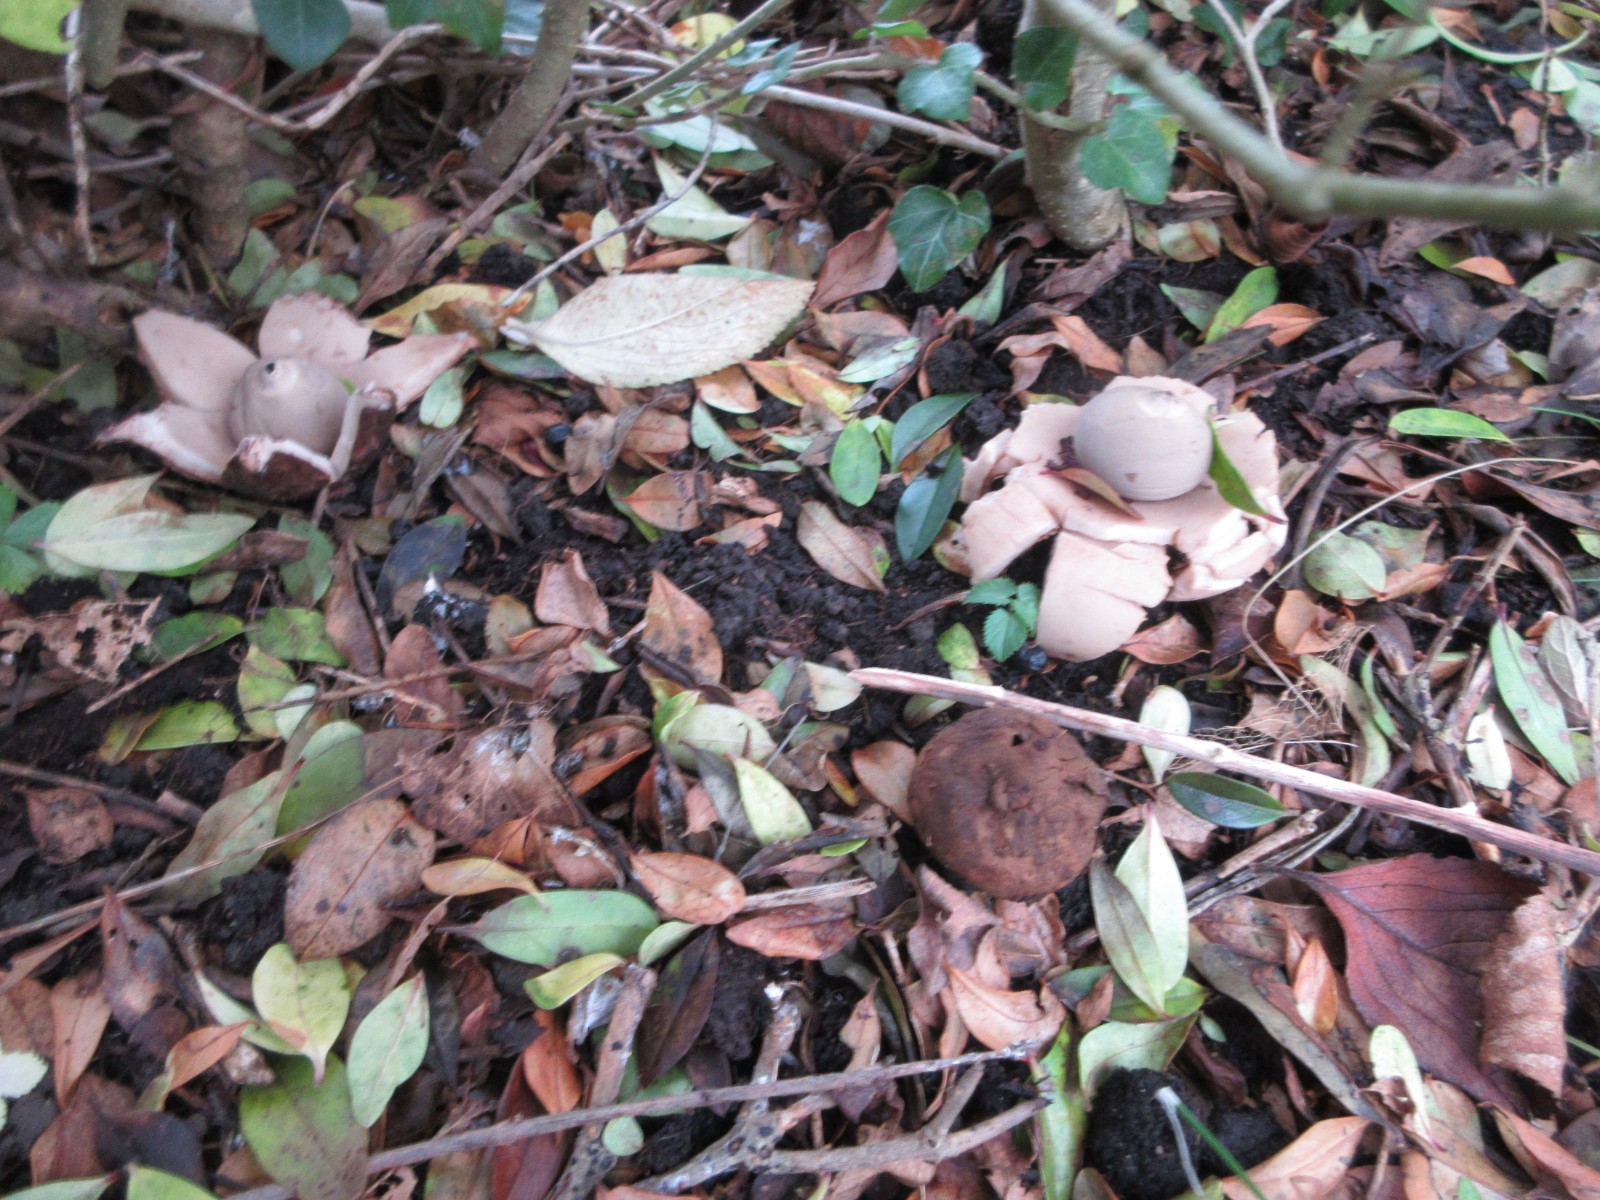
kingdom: Fungi
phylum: Basidiomycota
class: Agaricomycetes
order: Geastrales
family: Geastraceae
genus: Geastrum
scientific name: Geastrum michelianum
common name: kødet stjernebold
